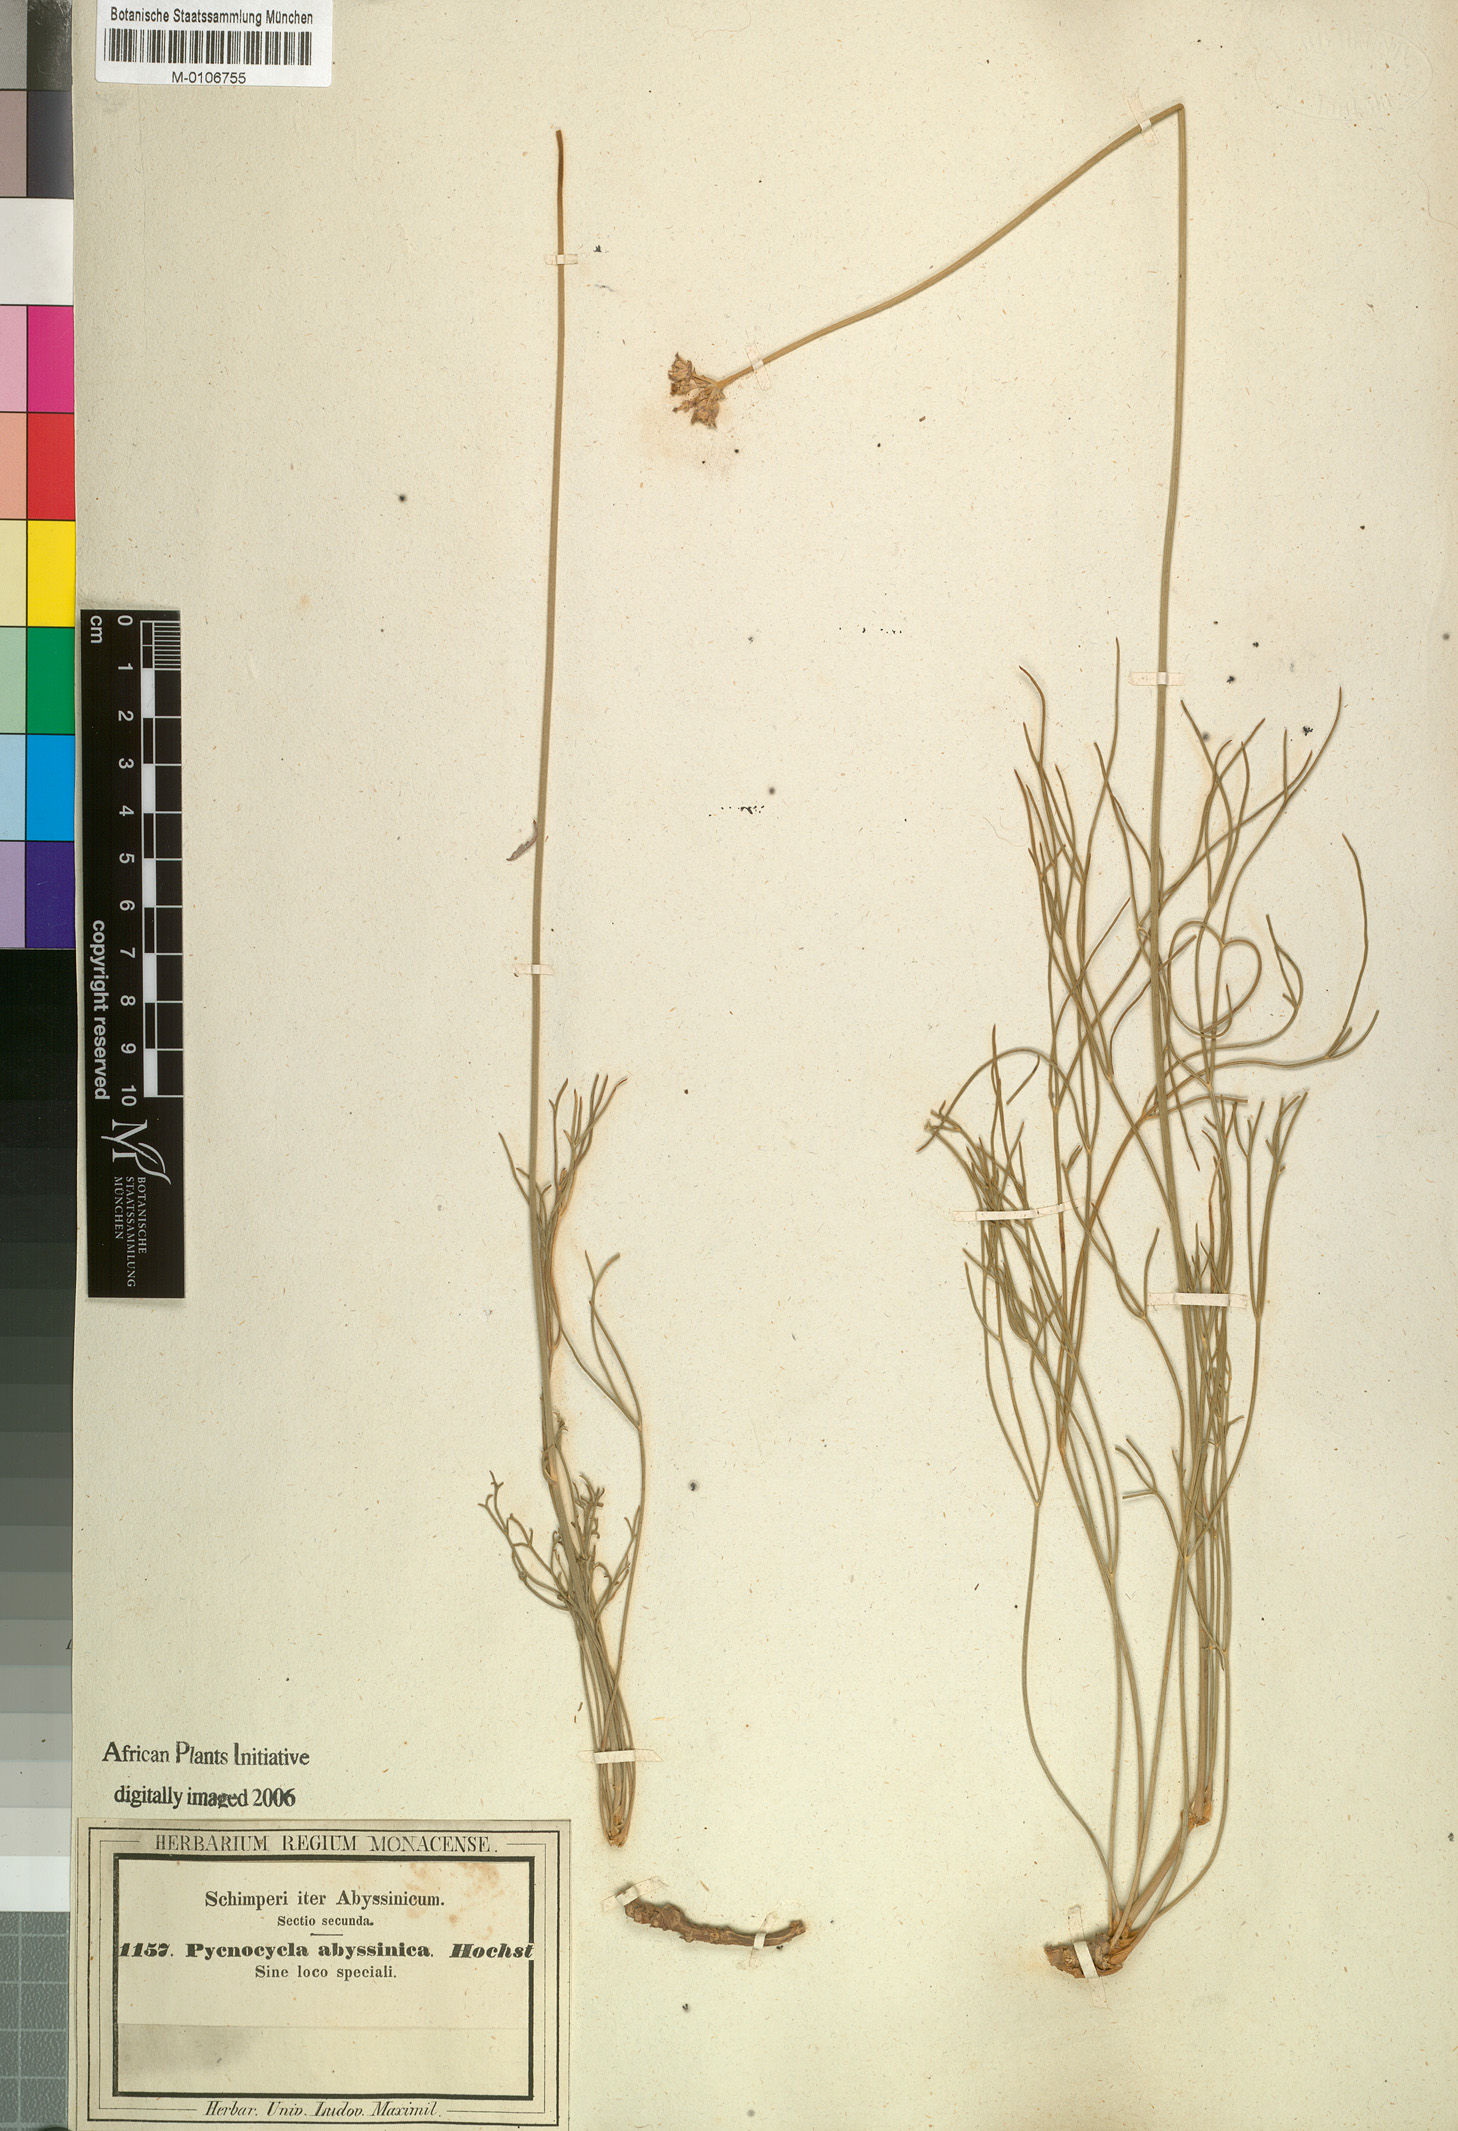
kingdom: Plantae
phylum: Tracheophyta
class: Magnoliopsida
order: Apiales
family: Apiaceae
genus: Pycnocycla
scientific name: Pycnocycla glauca
